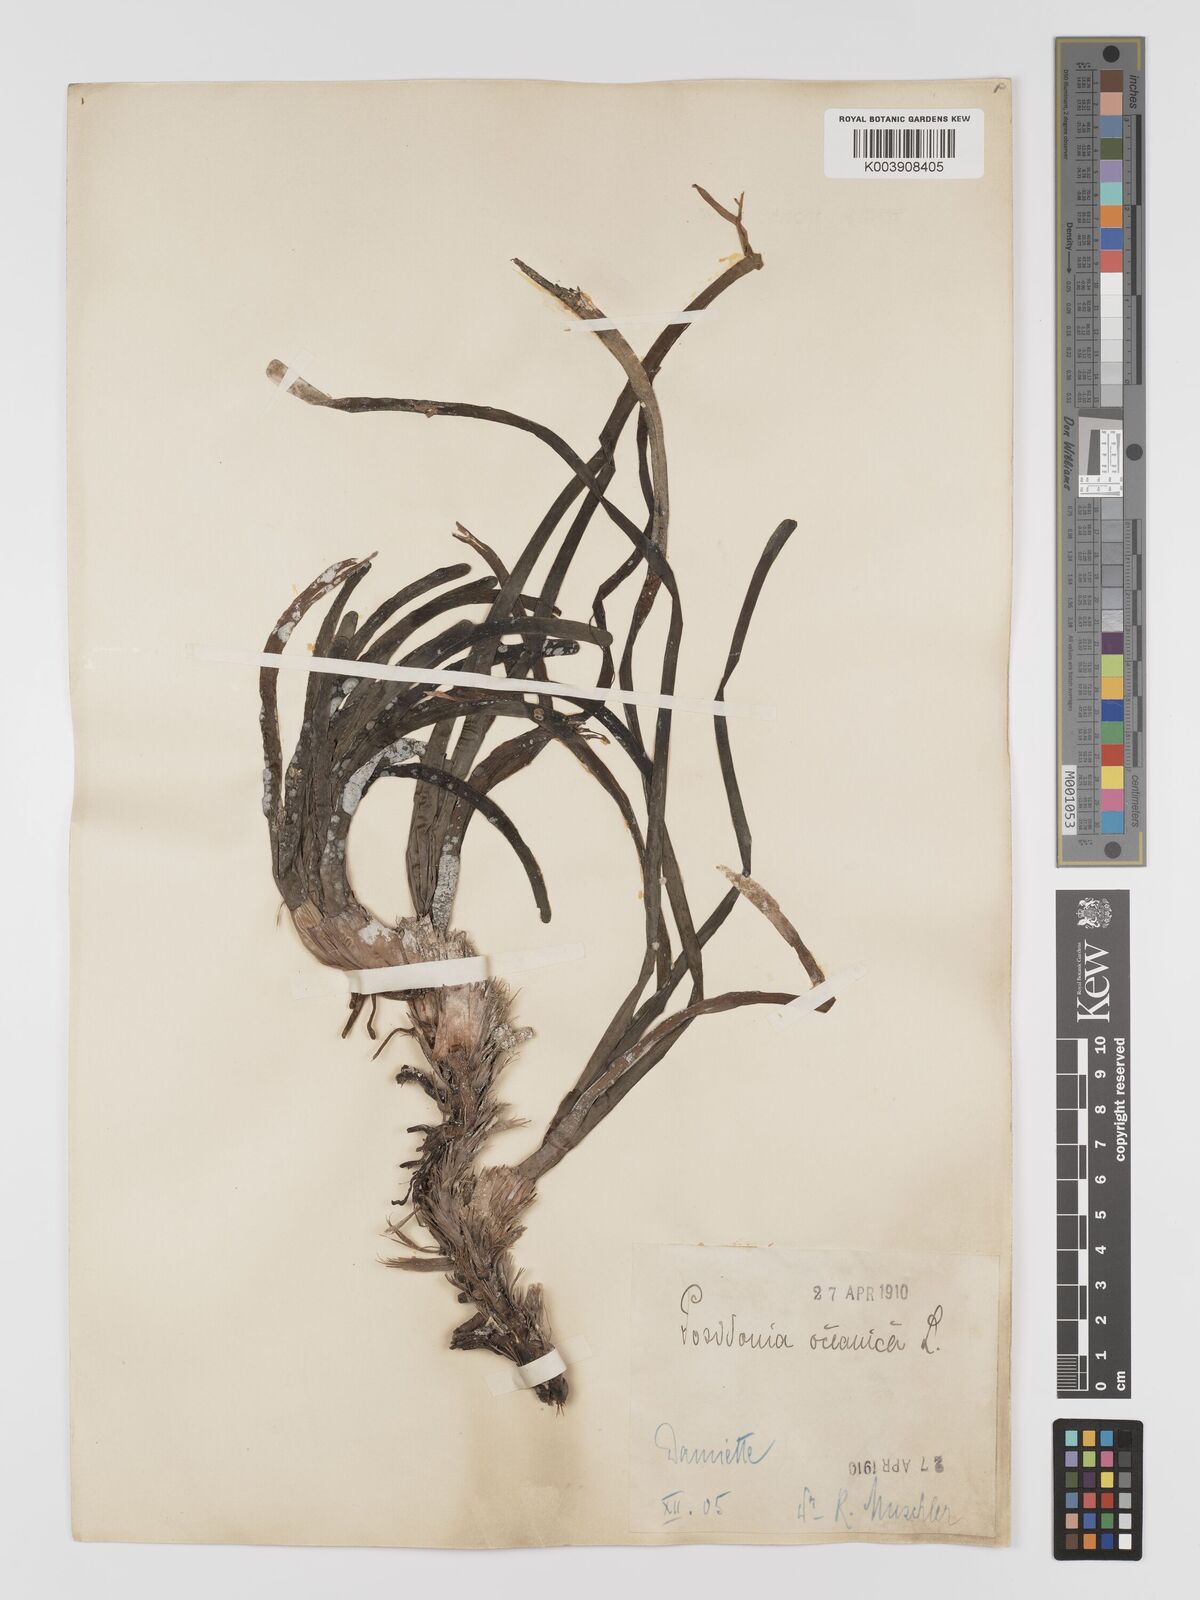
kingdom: Plantae
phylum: Tracheophyta
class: Liliopsida
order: Alismatales
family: Posidoniaceae
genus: Posidonia
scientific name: Posidonia oceanica
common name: Mediterranean tapeweed
